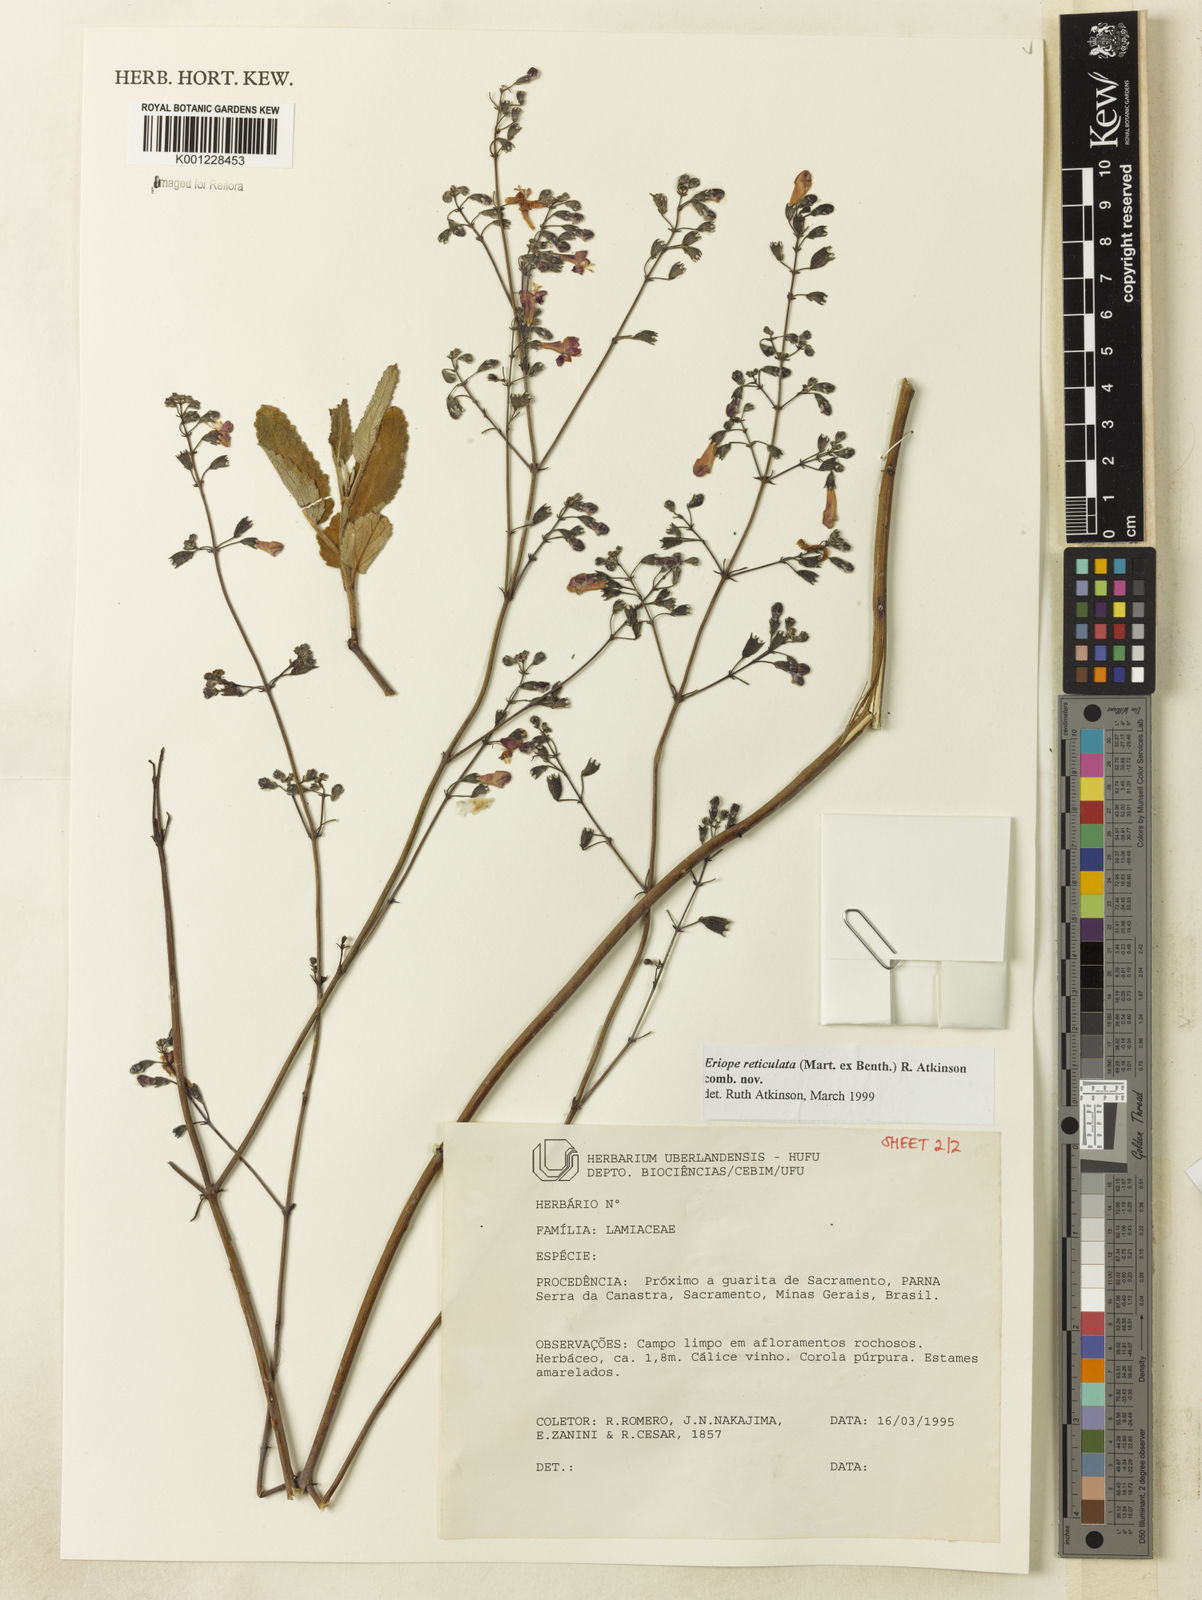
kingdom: Plantae
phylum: Tracheophyta
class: Magnoliopsida
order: Lamiales
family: Lamiaceae
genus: Hypenia
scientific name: Hypenia reticulata
